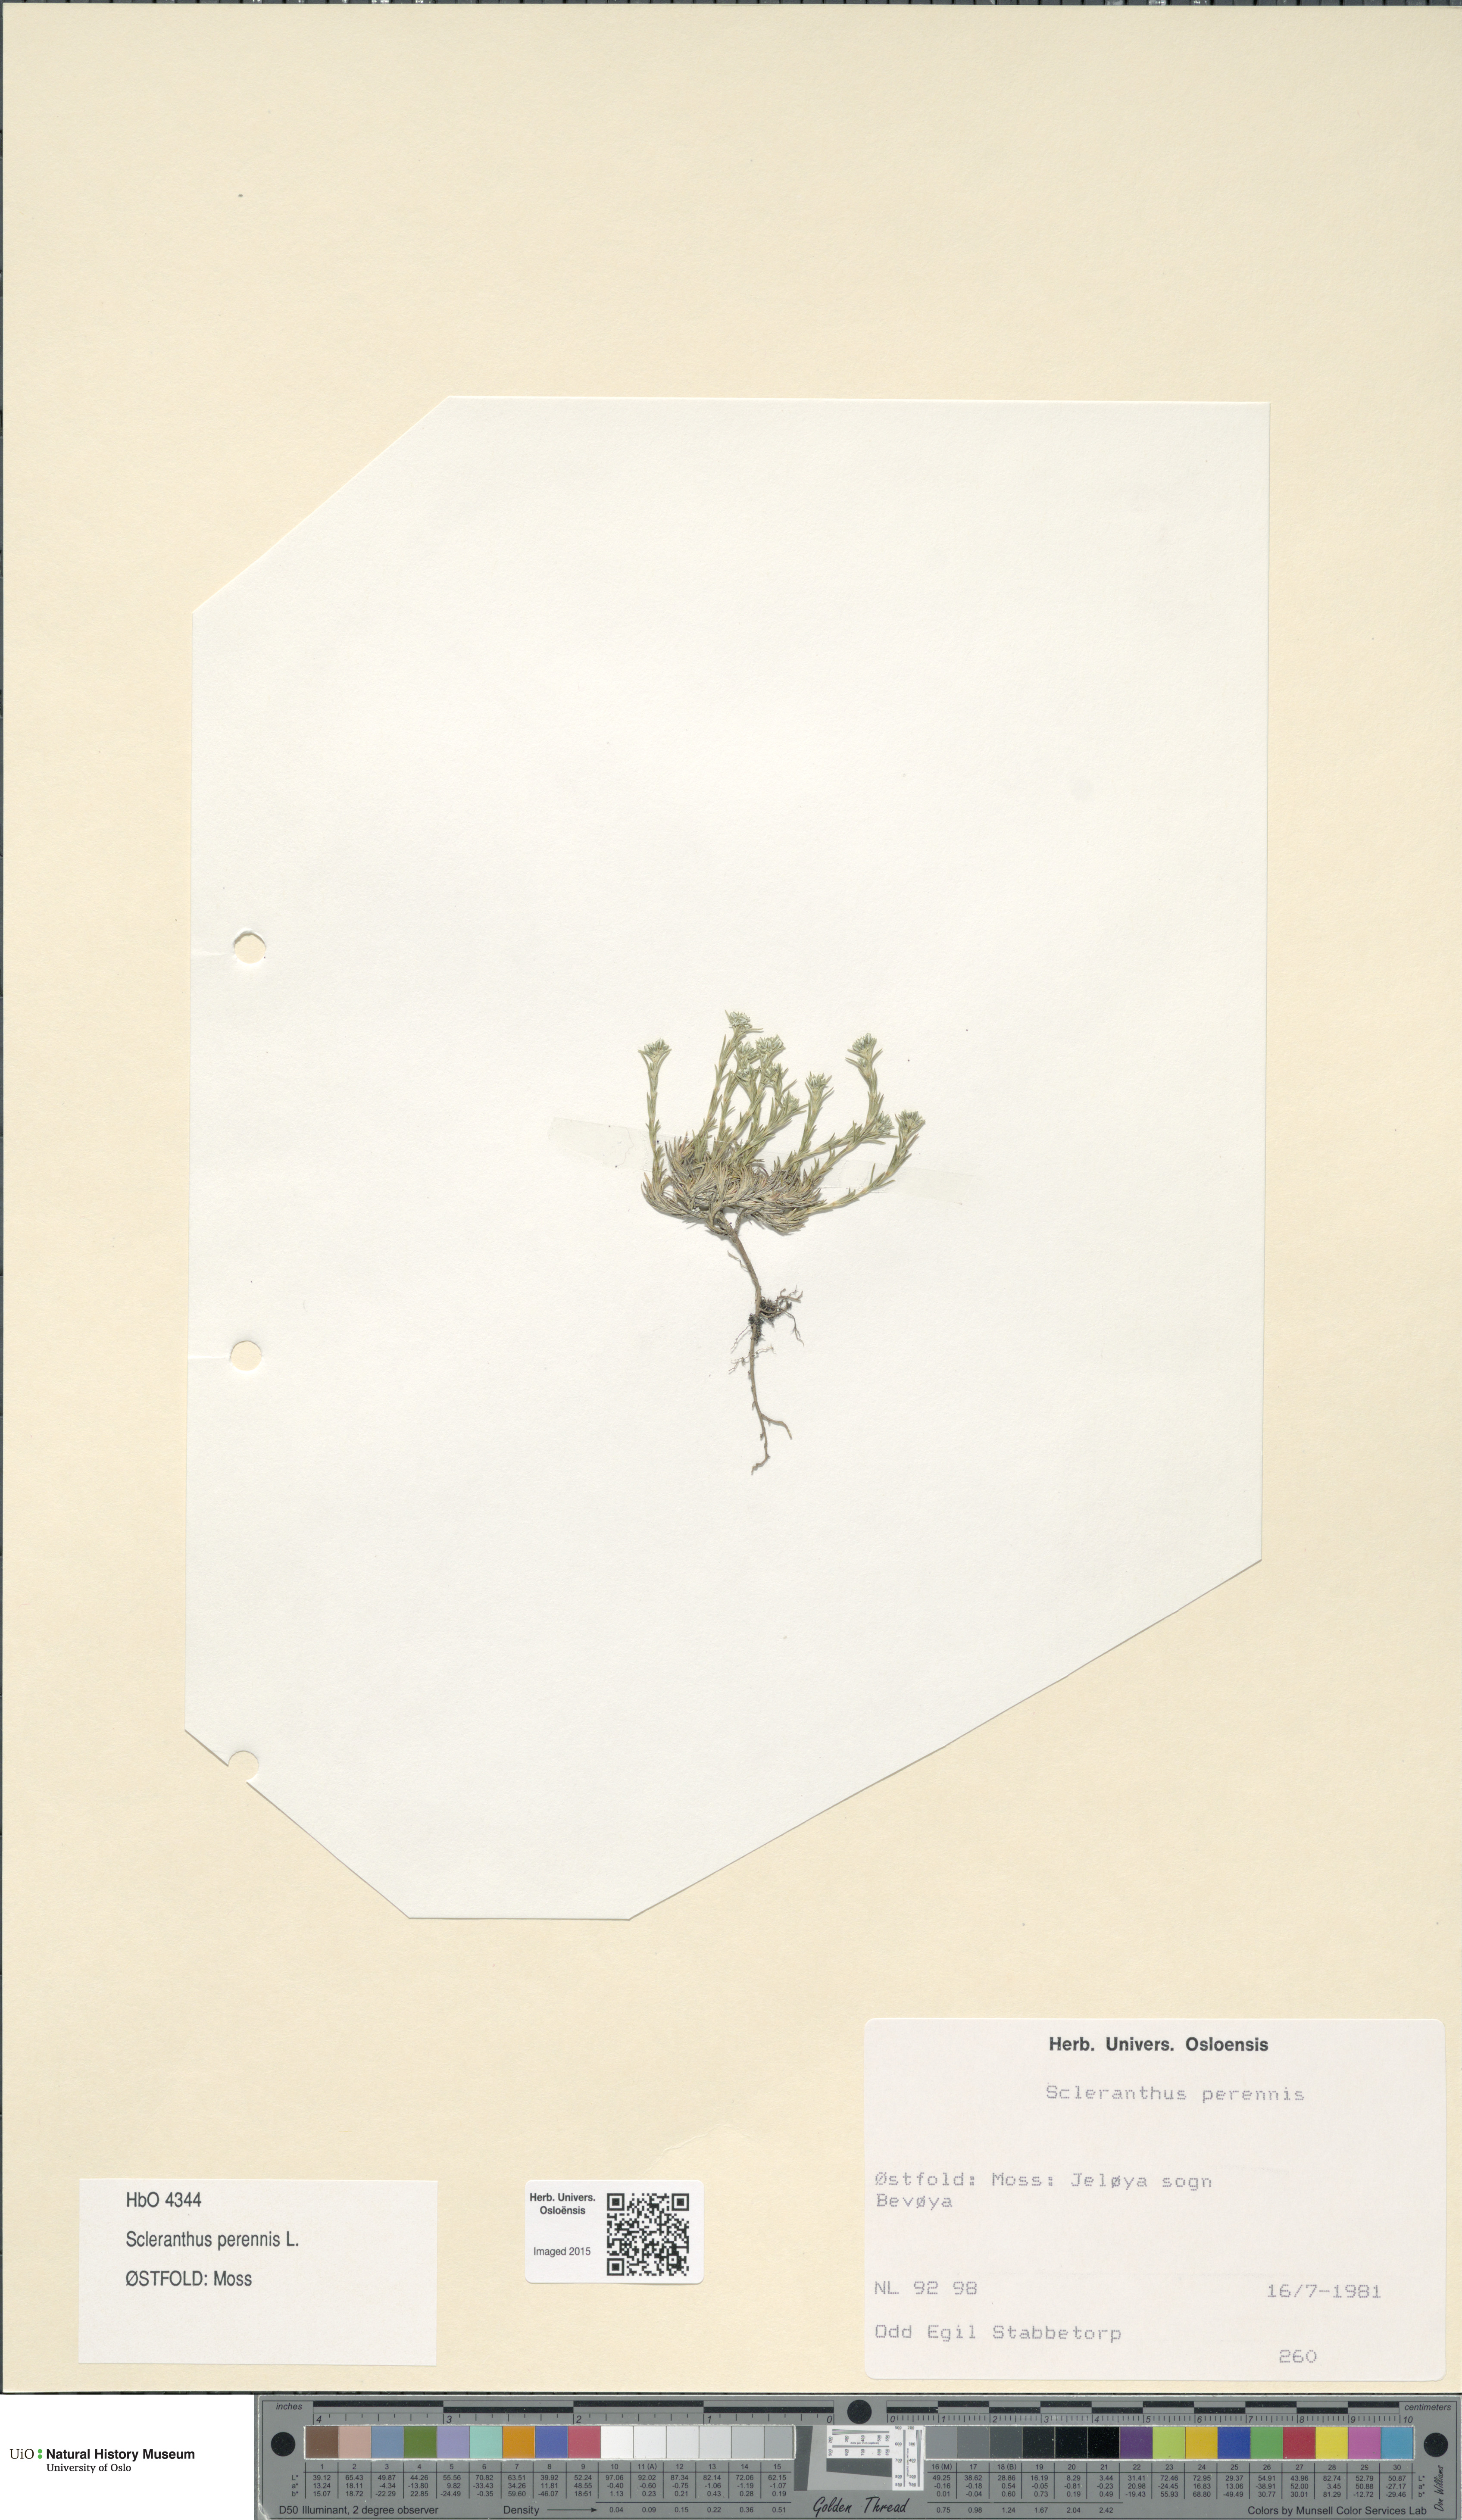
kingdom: Plantae
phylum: Tracheophyta
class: Magnoliopsida
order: Caryophyllales
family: Caryophyllaceae
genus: Scleranthus
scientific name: Scleranthus perennis
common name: Perennial knawel
